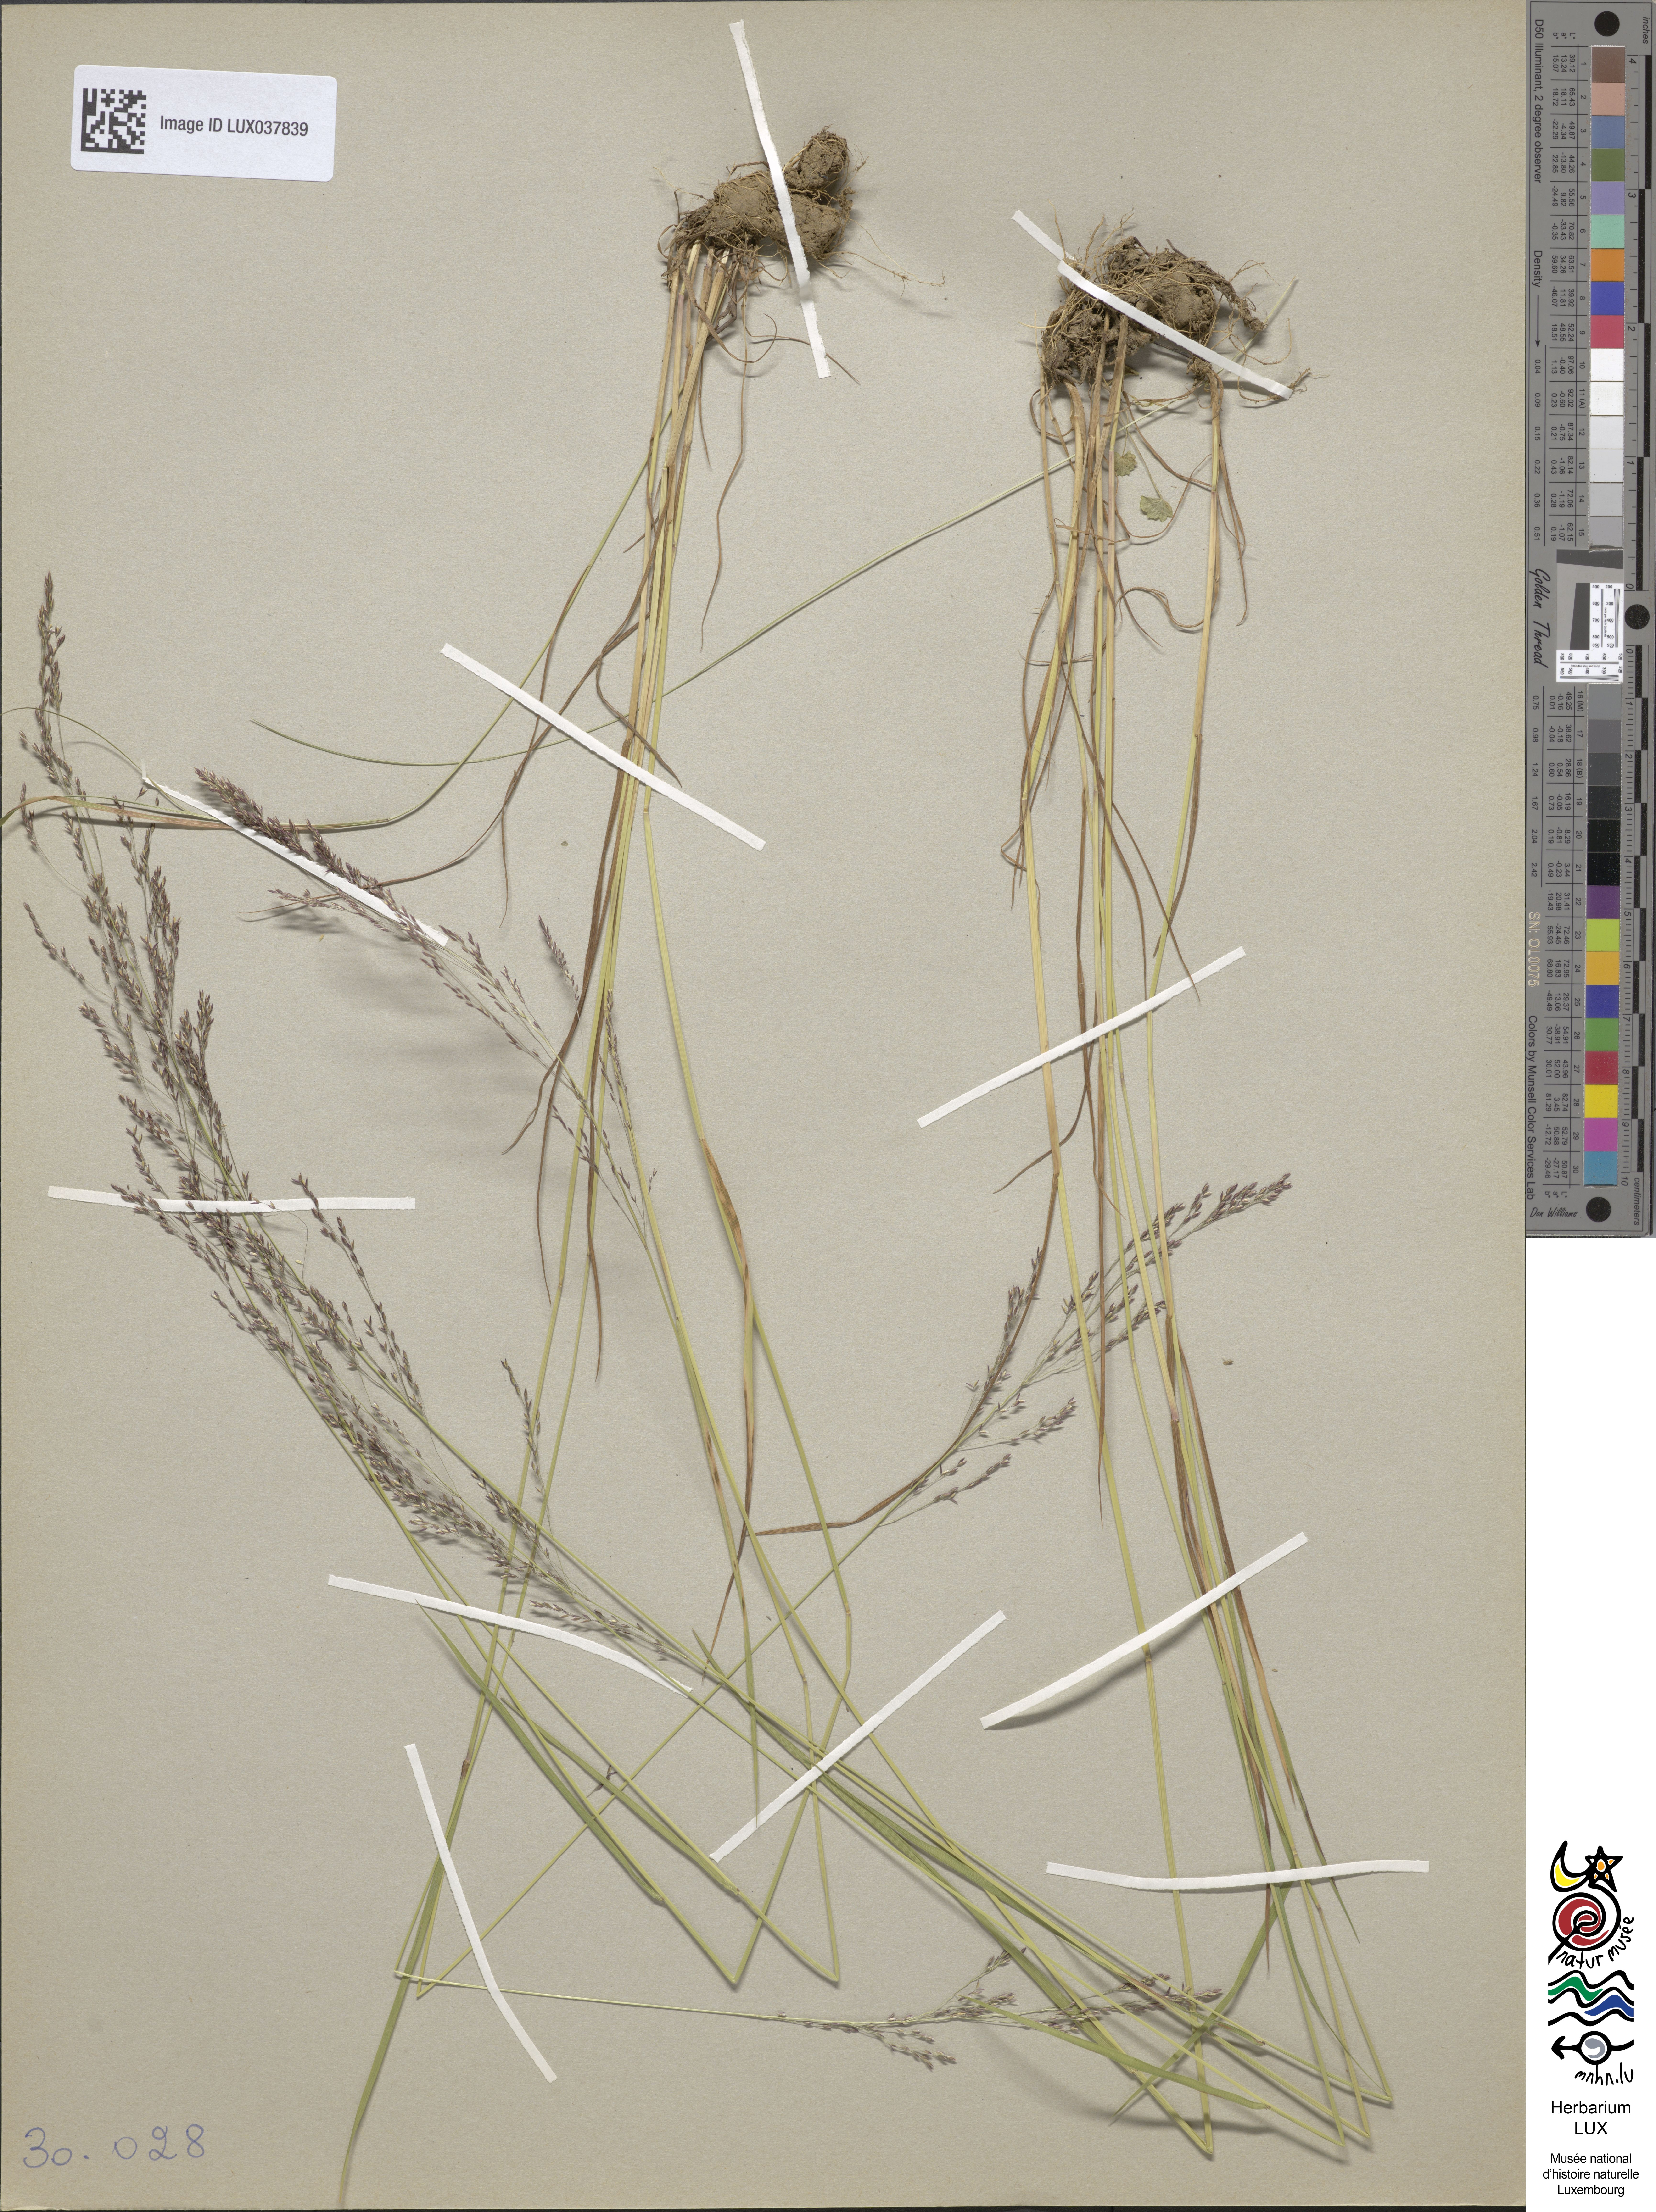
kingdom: Animalia
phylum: Arthropoda
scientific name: Arthropoda
